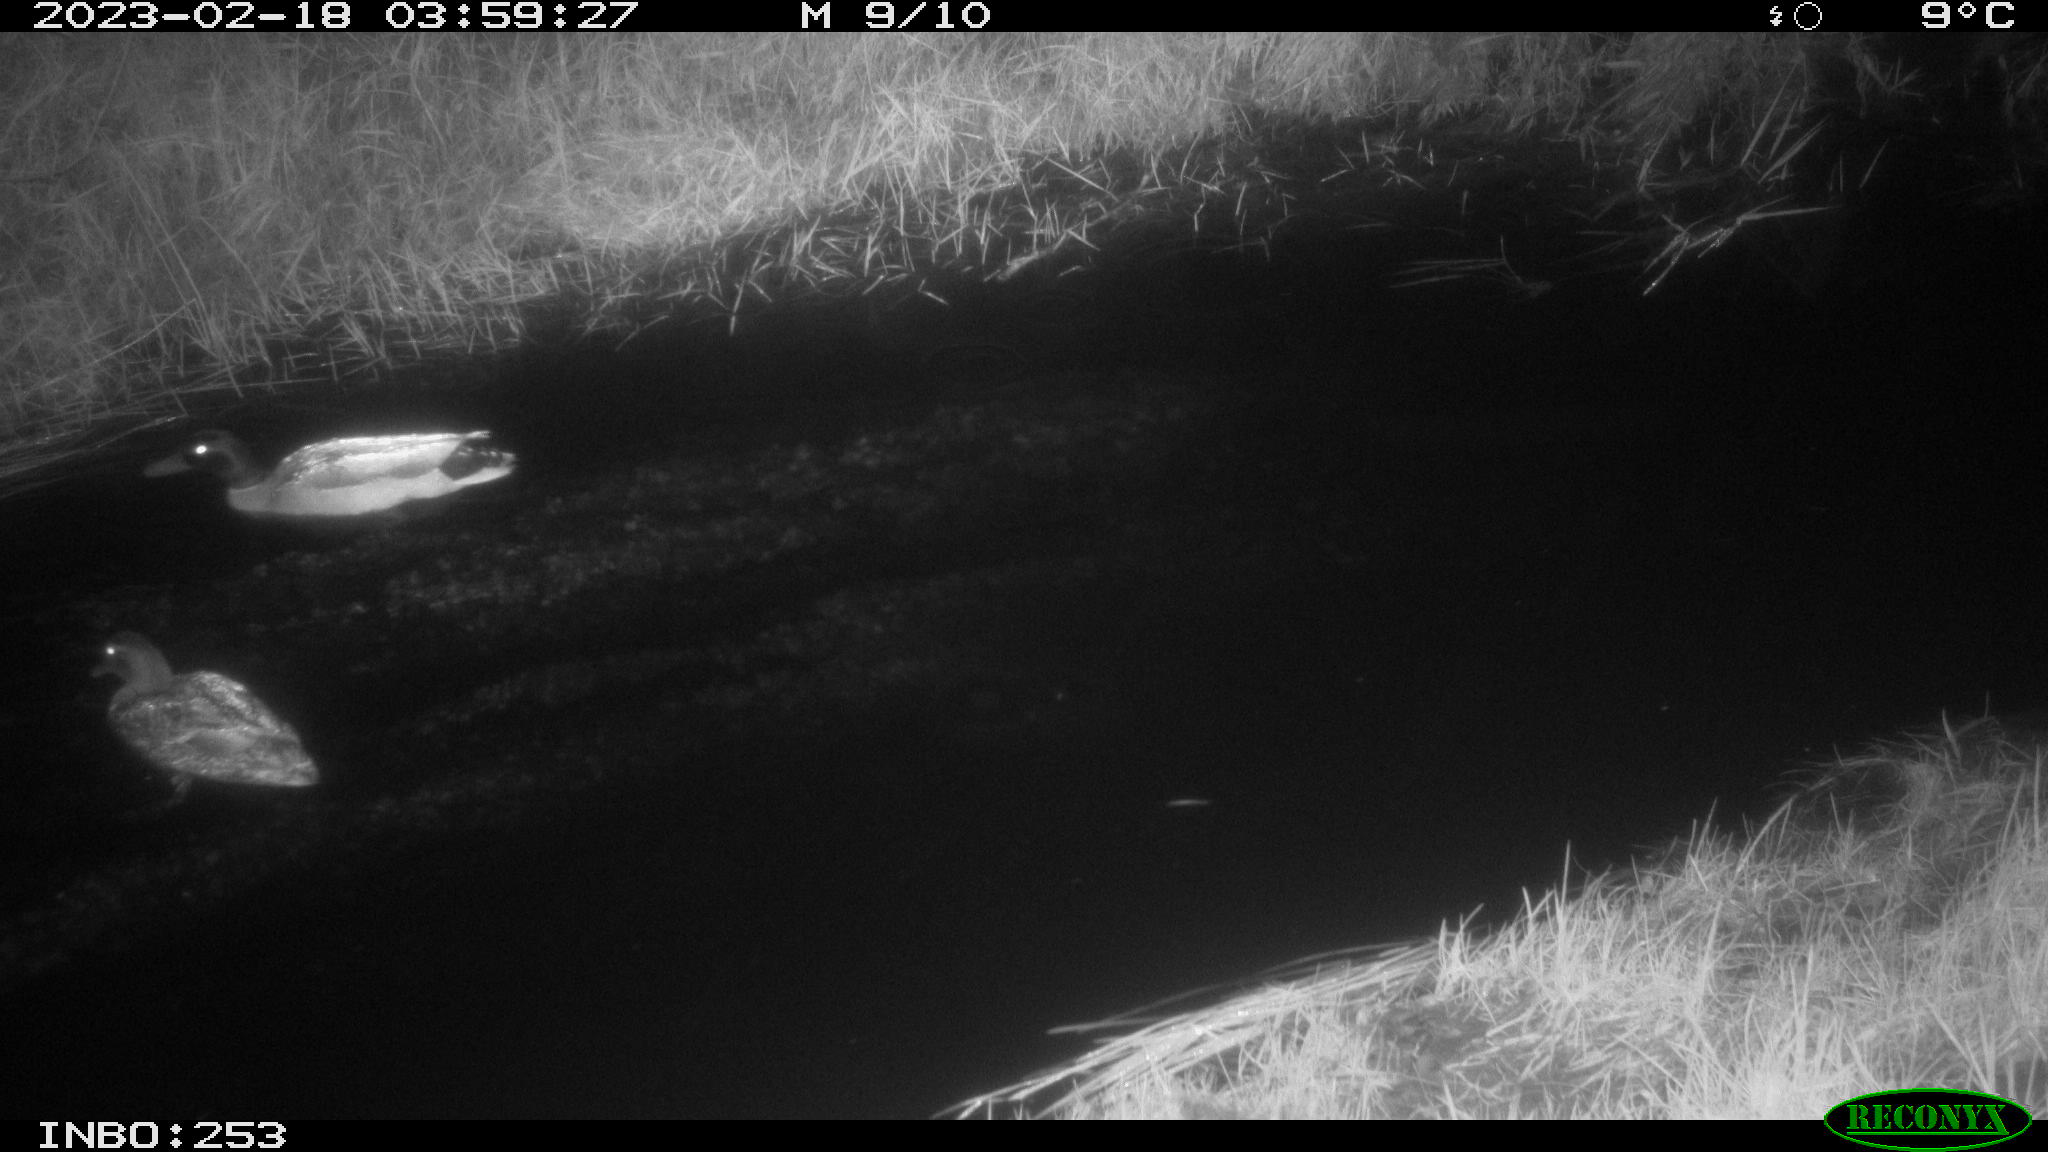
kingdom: Animalia
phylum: Chordata
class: Aves
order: Anseriformes
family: Anatidae
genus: Anas
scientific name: Anas
